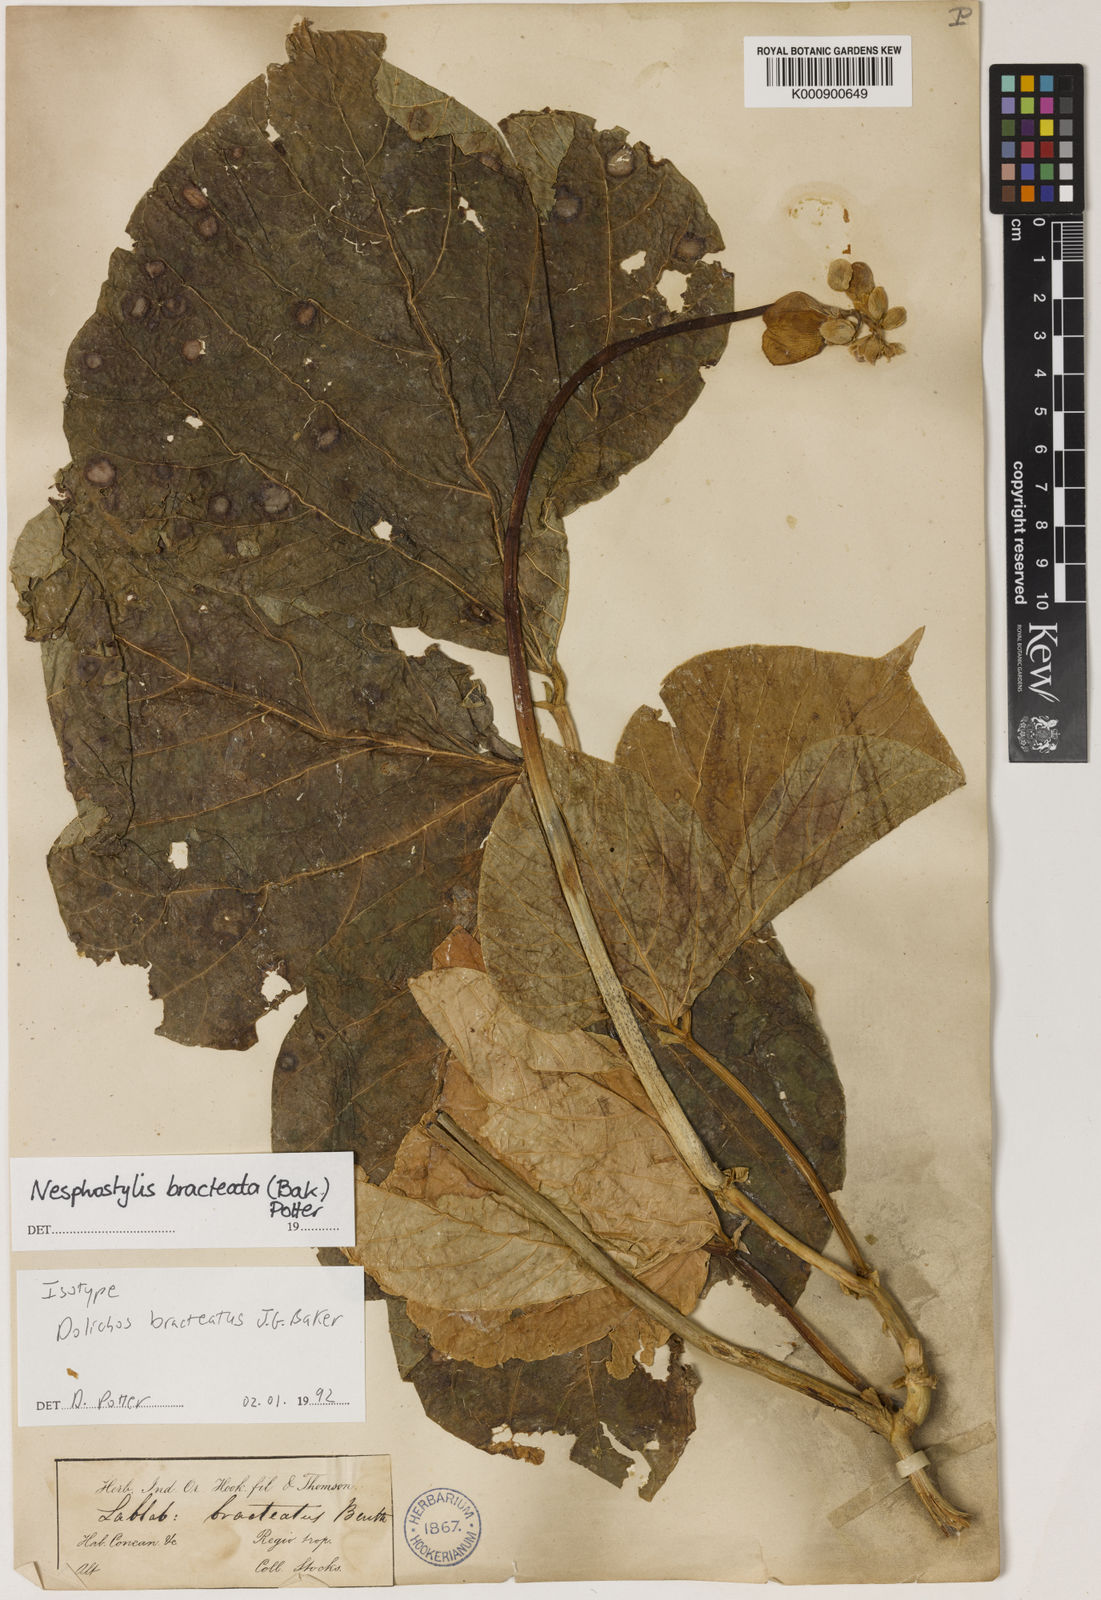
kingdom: Plantae
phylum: Tracheophyta
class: Magnoliopsida
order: Fabales
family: Fabaceae
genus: Lablab
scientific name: Lablab purpureus
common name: Lablab-bean
